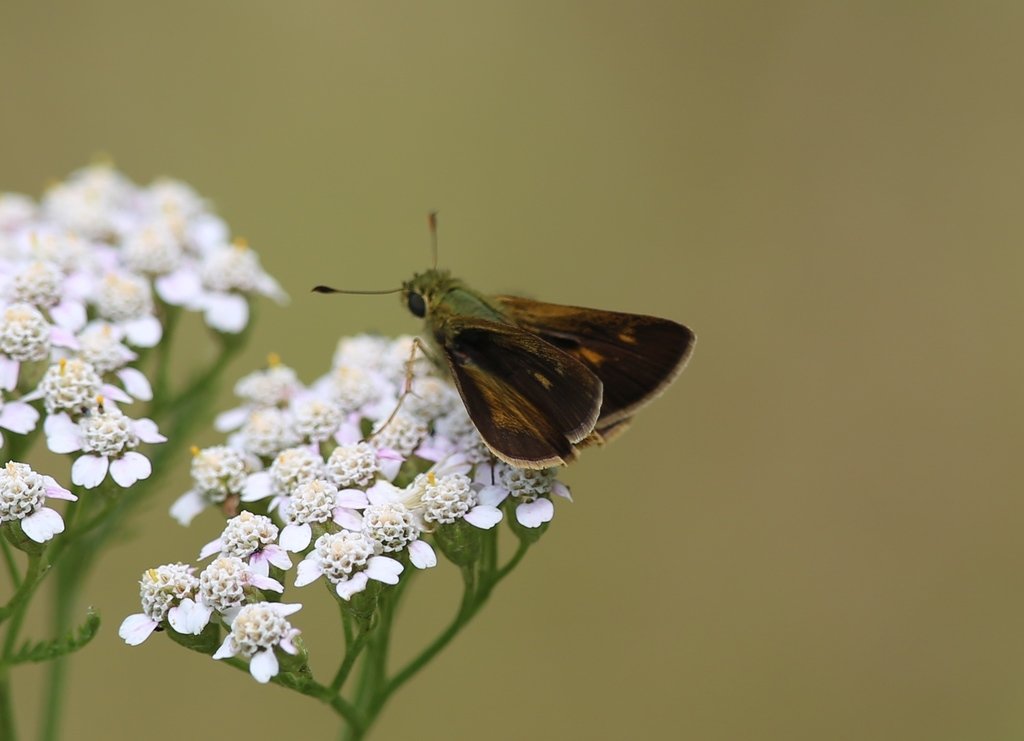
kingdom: Animalia
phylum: Arthropoda
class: Insecta
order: Lepidoptera
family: Hesperiidae
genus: Polites
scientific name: Polites egeremet
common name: Northern Broken-Dash
